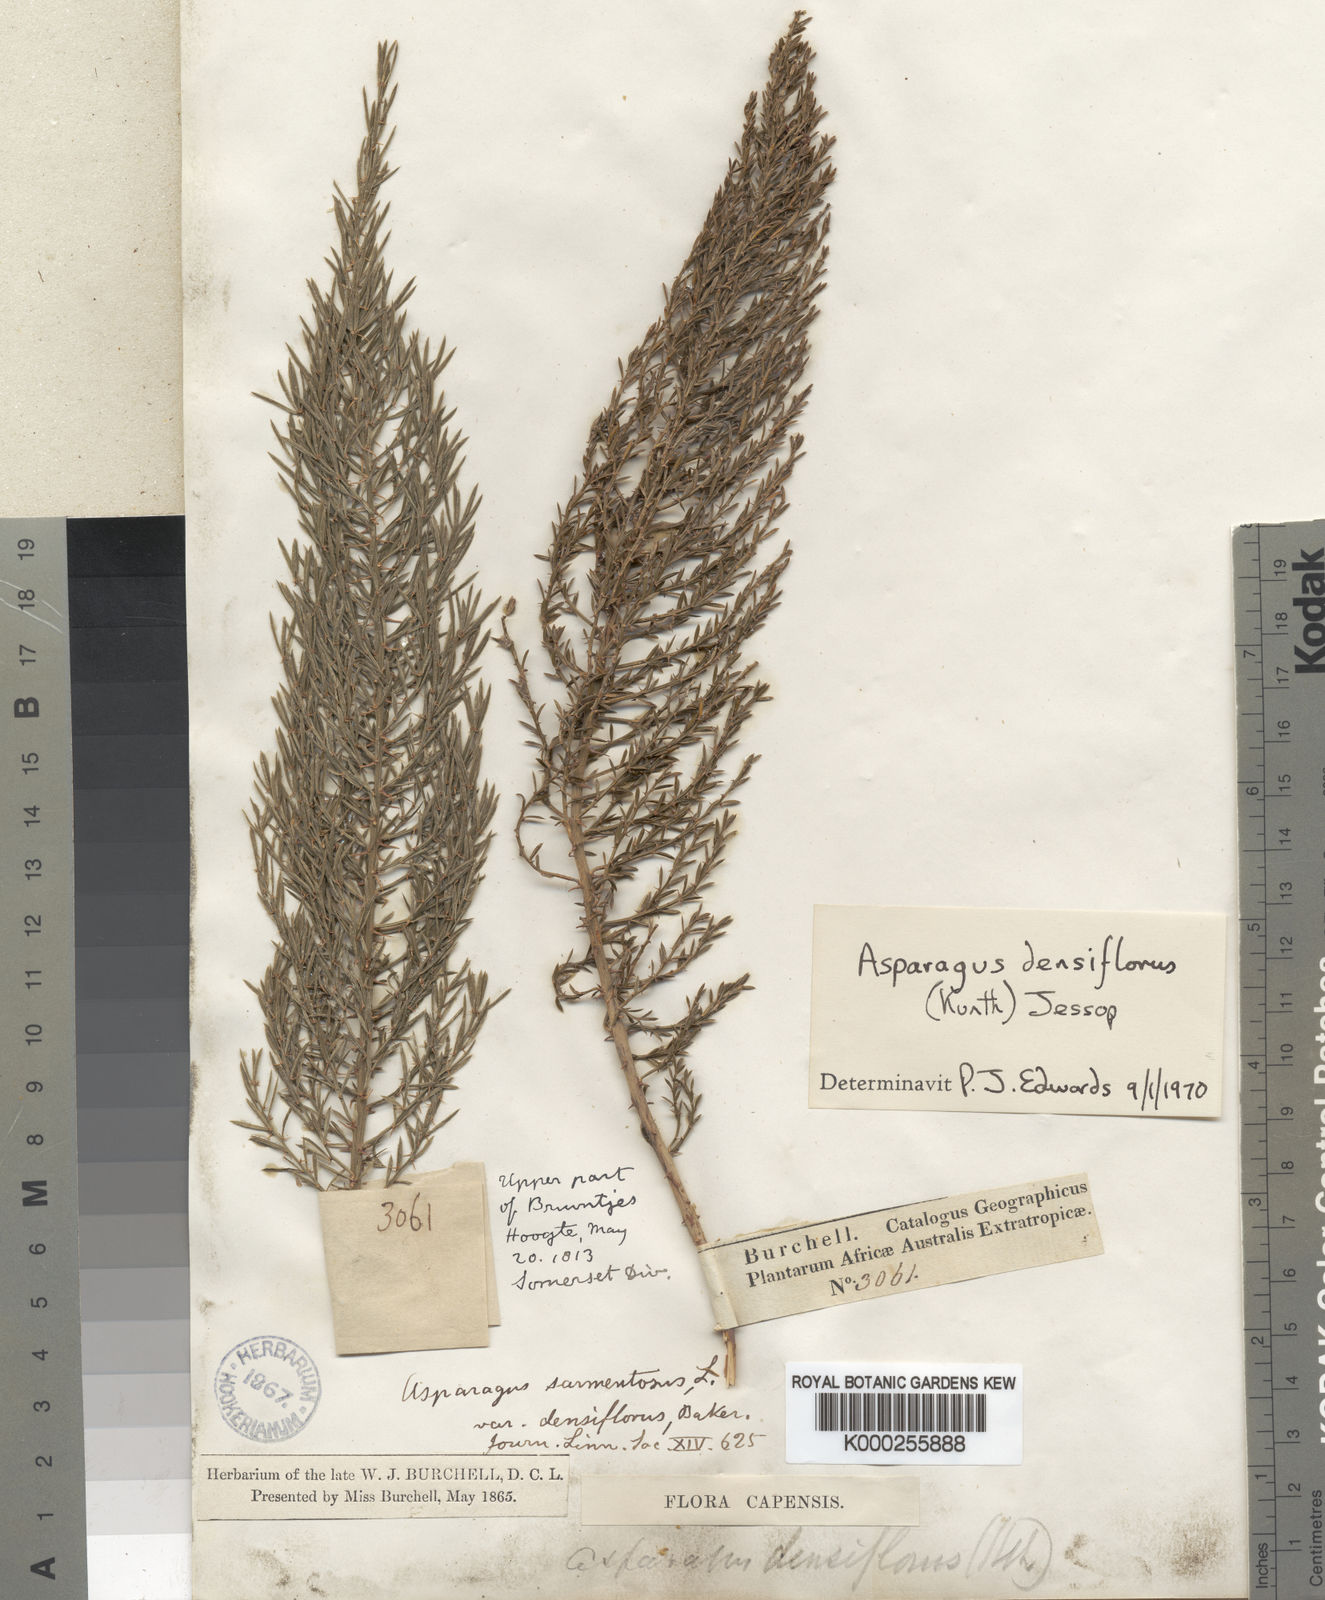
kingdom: Plantae
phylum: Tracheophyta
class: Liliopsida
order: Asparagales
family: Asparagaceae
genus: Asparagus
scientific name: Asparagus densiflorus
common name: Asparagus fern
